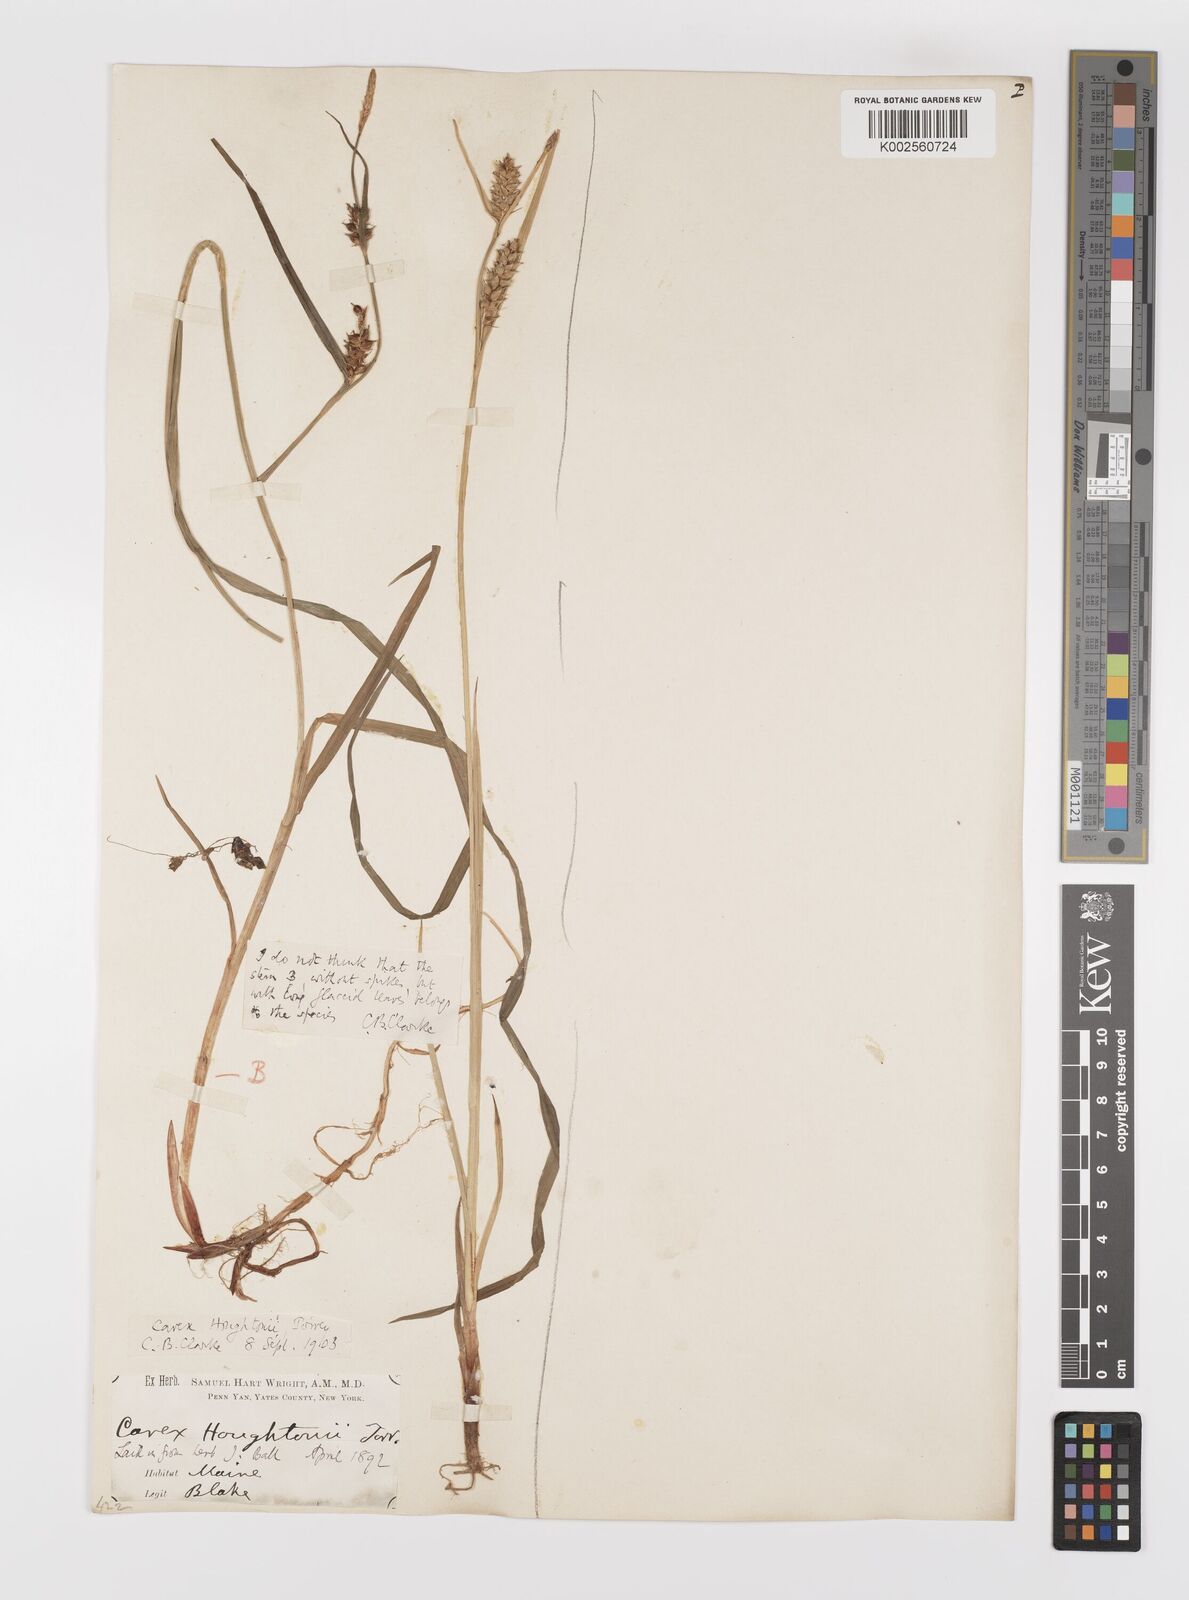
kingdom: Plantae
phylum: Tracheophyta
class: Liliopsida
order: Poales
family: Cyperaceae
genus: Carex
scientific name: Carex houghtoniana
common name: Houghton's sedge
